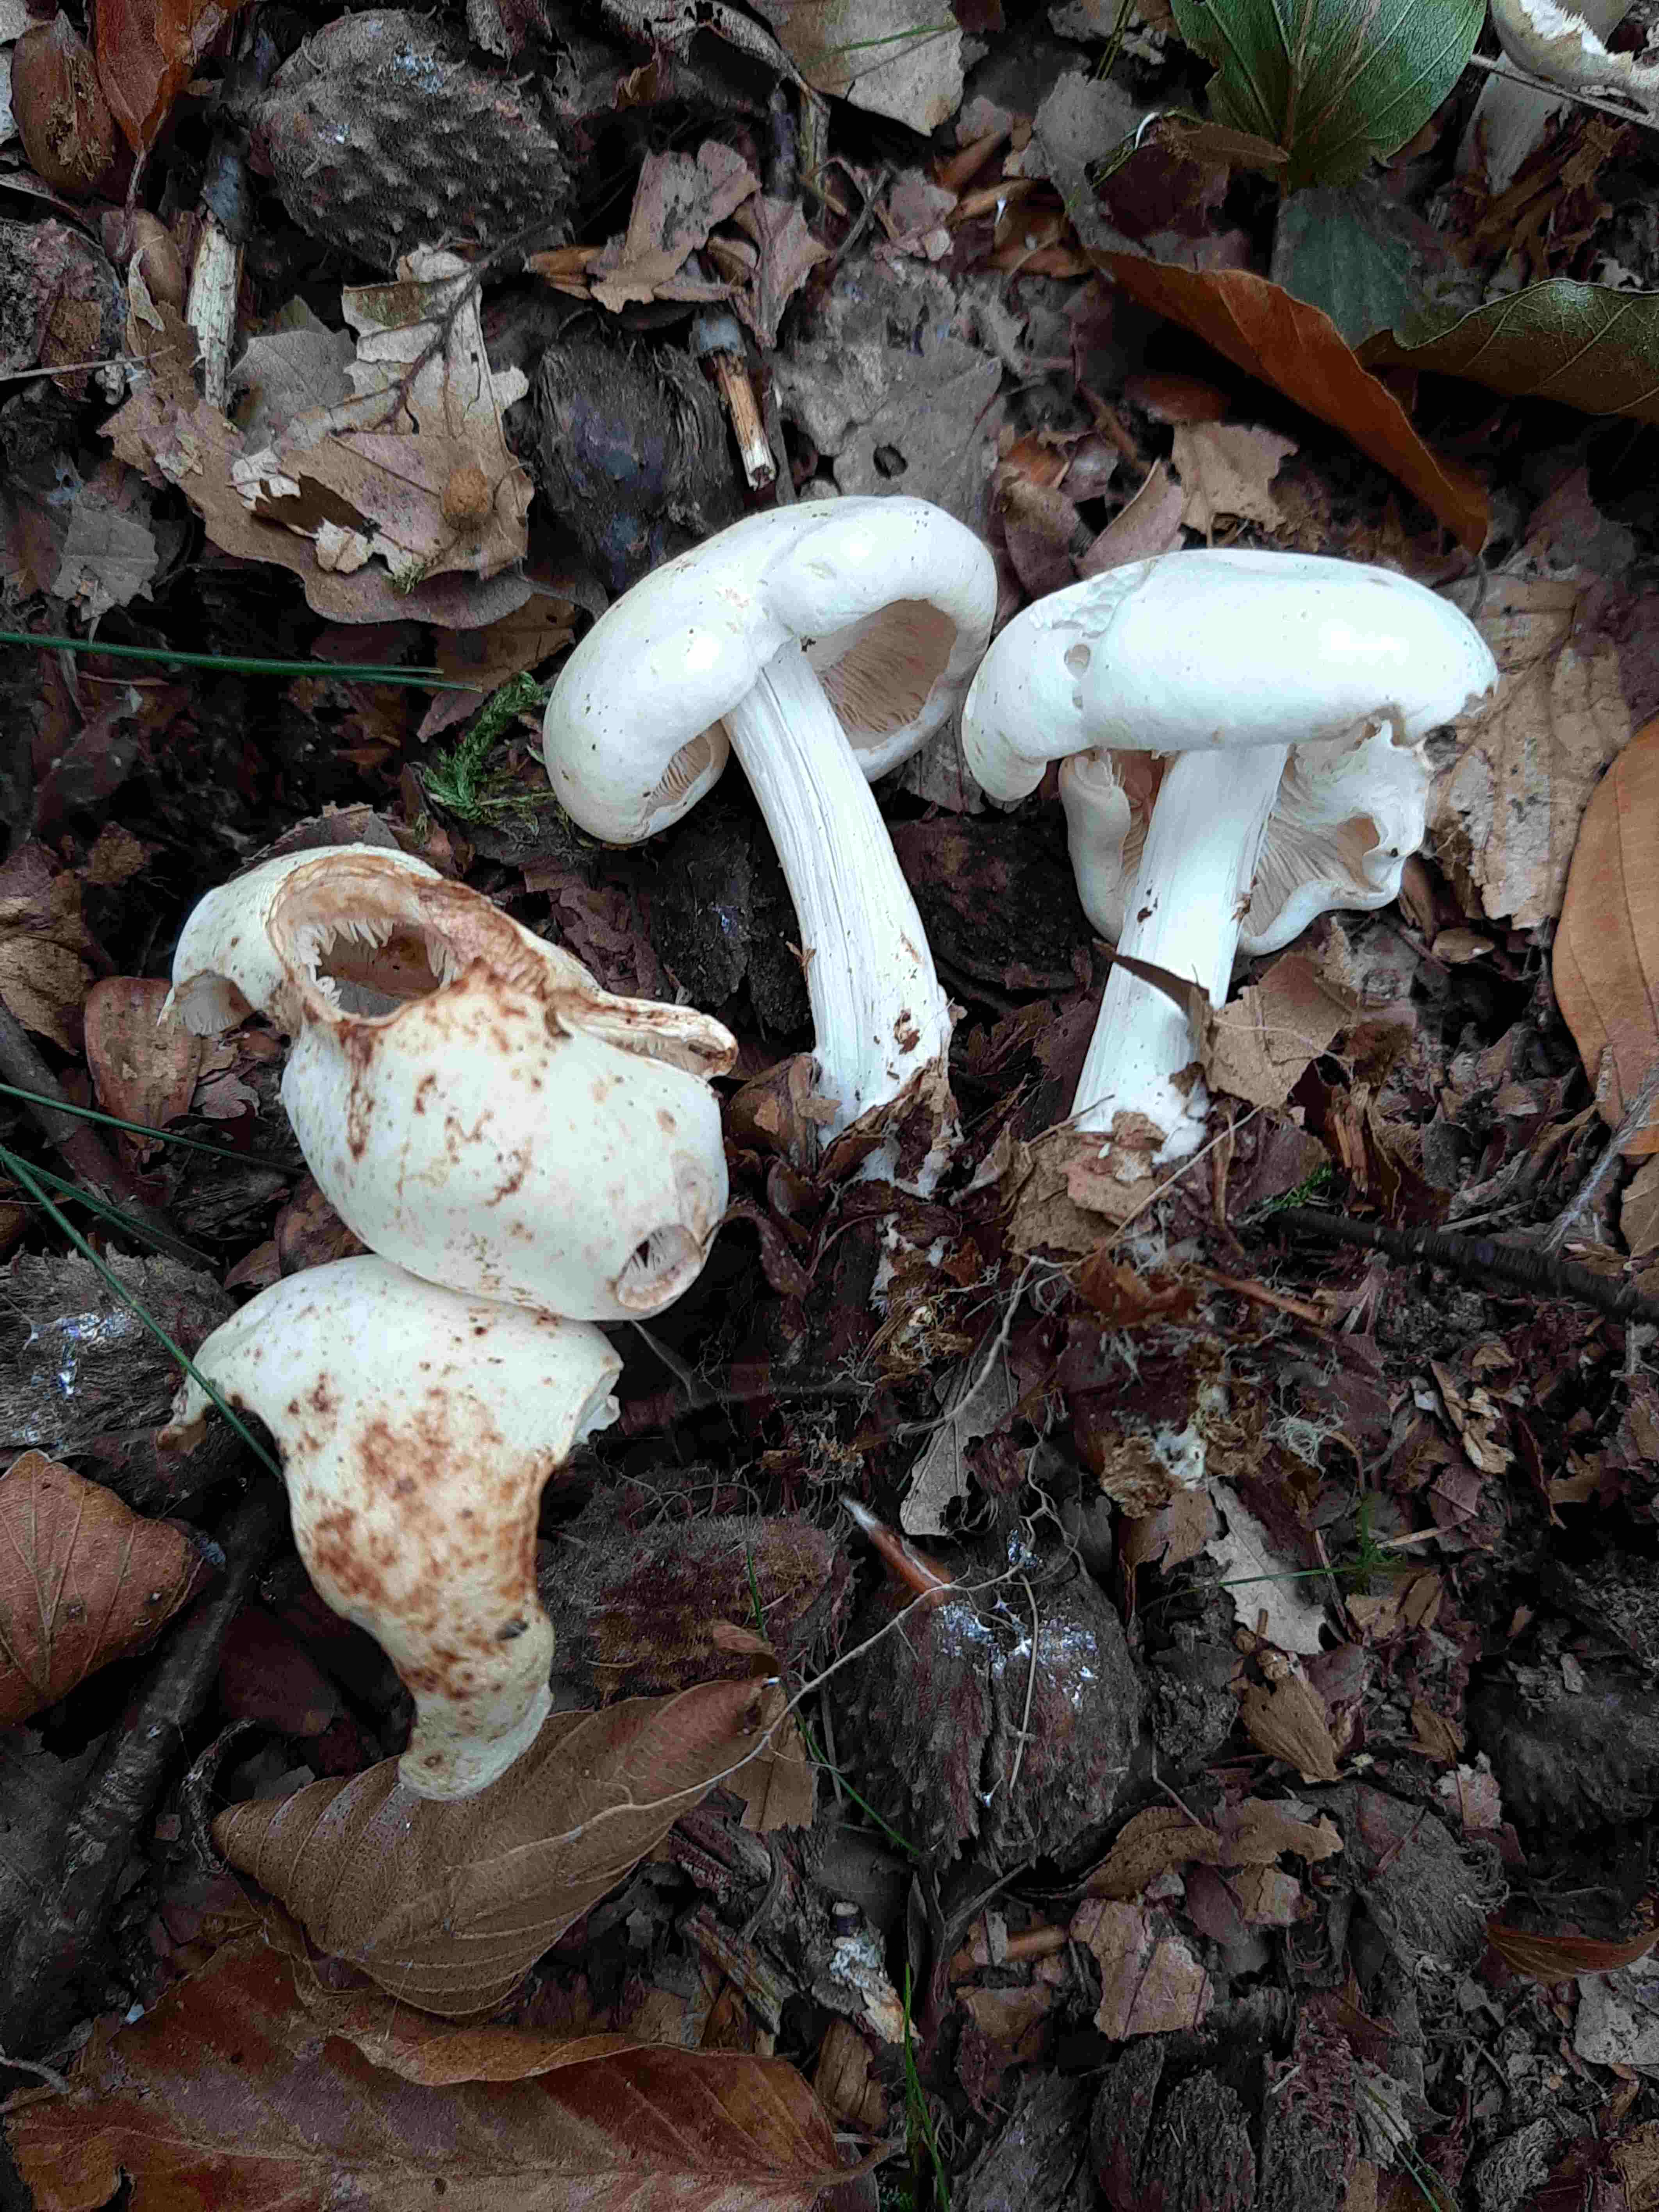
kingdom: Fungi
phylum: Basidiomycota
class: Agaricomycetes
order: Agaricales
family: Omphalotaceae
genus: Rhodocollybia
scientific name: Rhodocollybia maculata
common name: plettet fladhat
